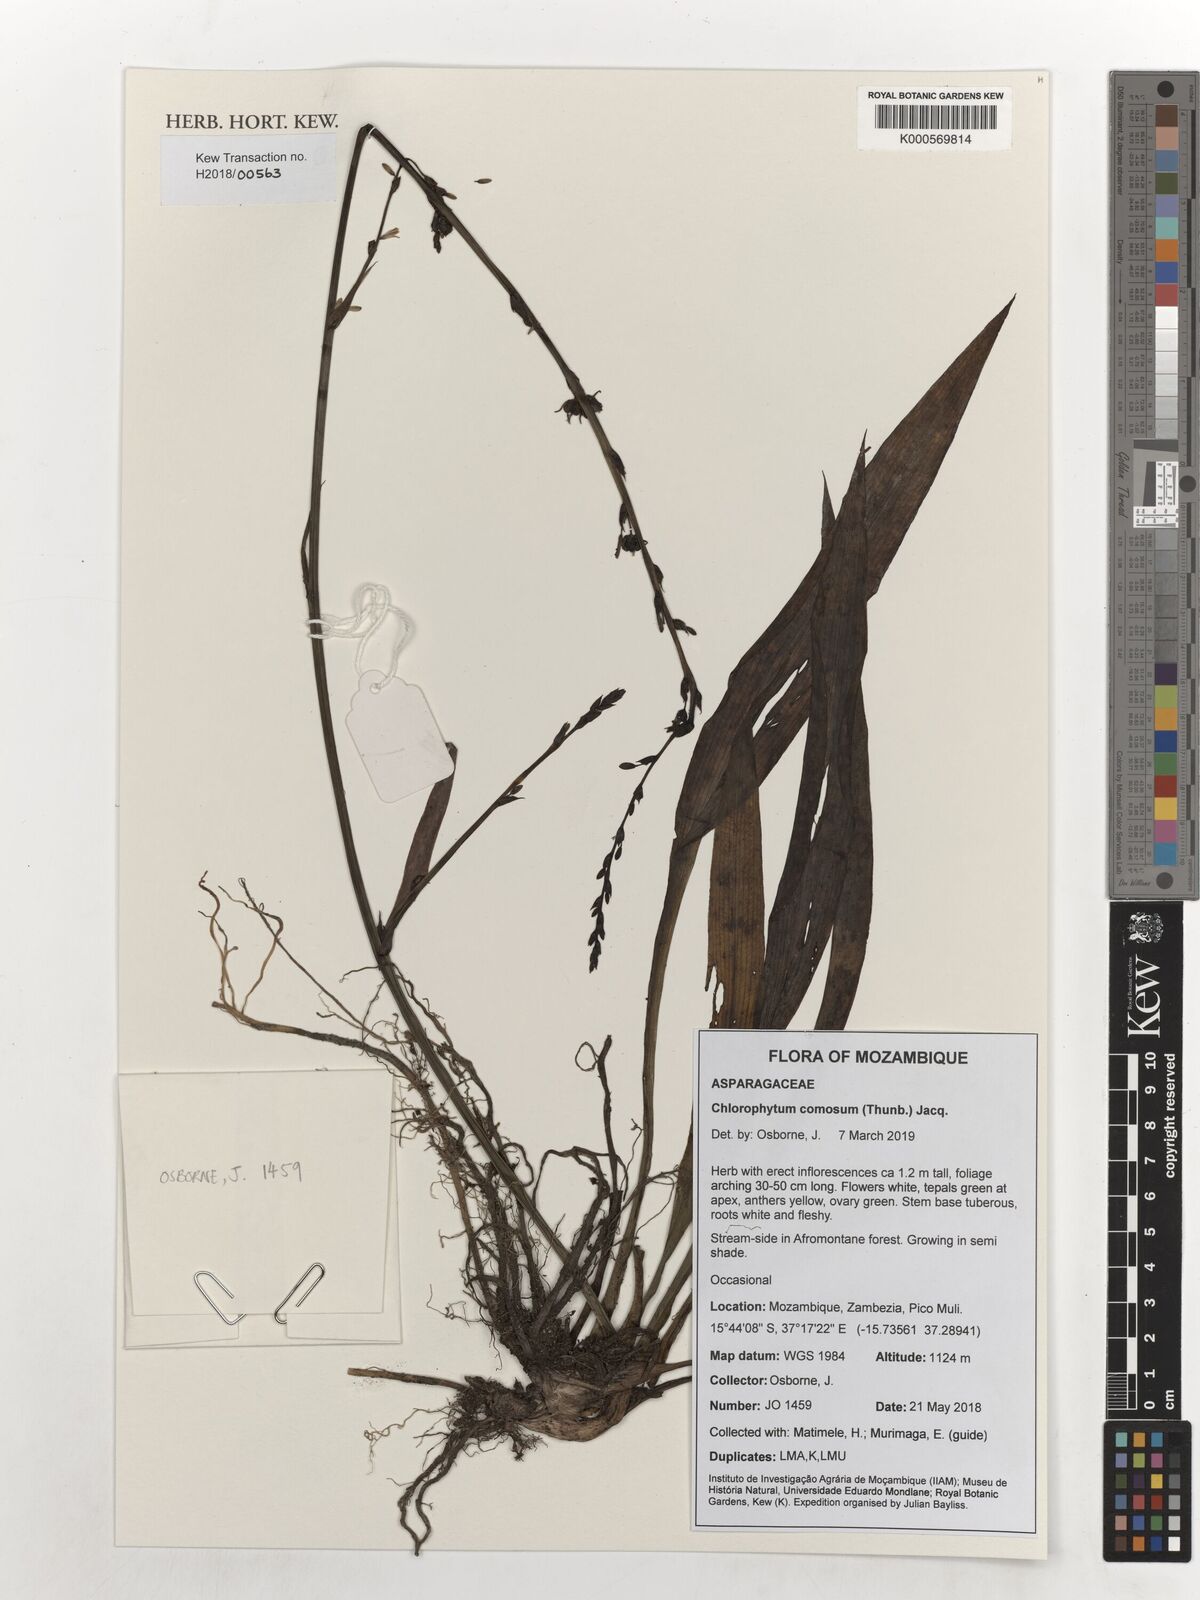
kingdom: Plantae
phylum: Tracheophyta
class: Liliopsida
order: Asparagales
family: Asparagaceae
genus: Chlorophytum
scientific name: Chlorophytum comosum
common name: Spider plant
